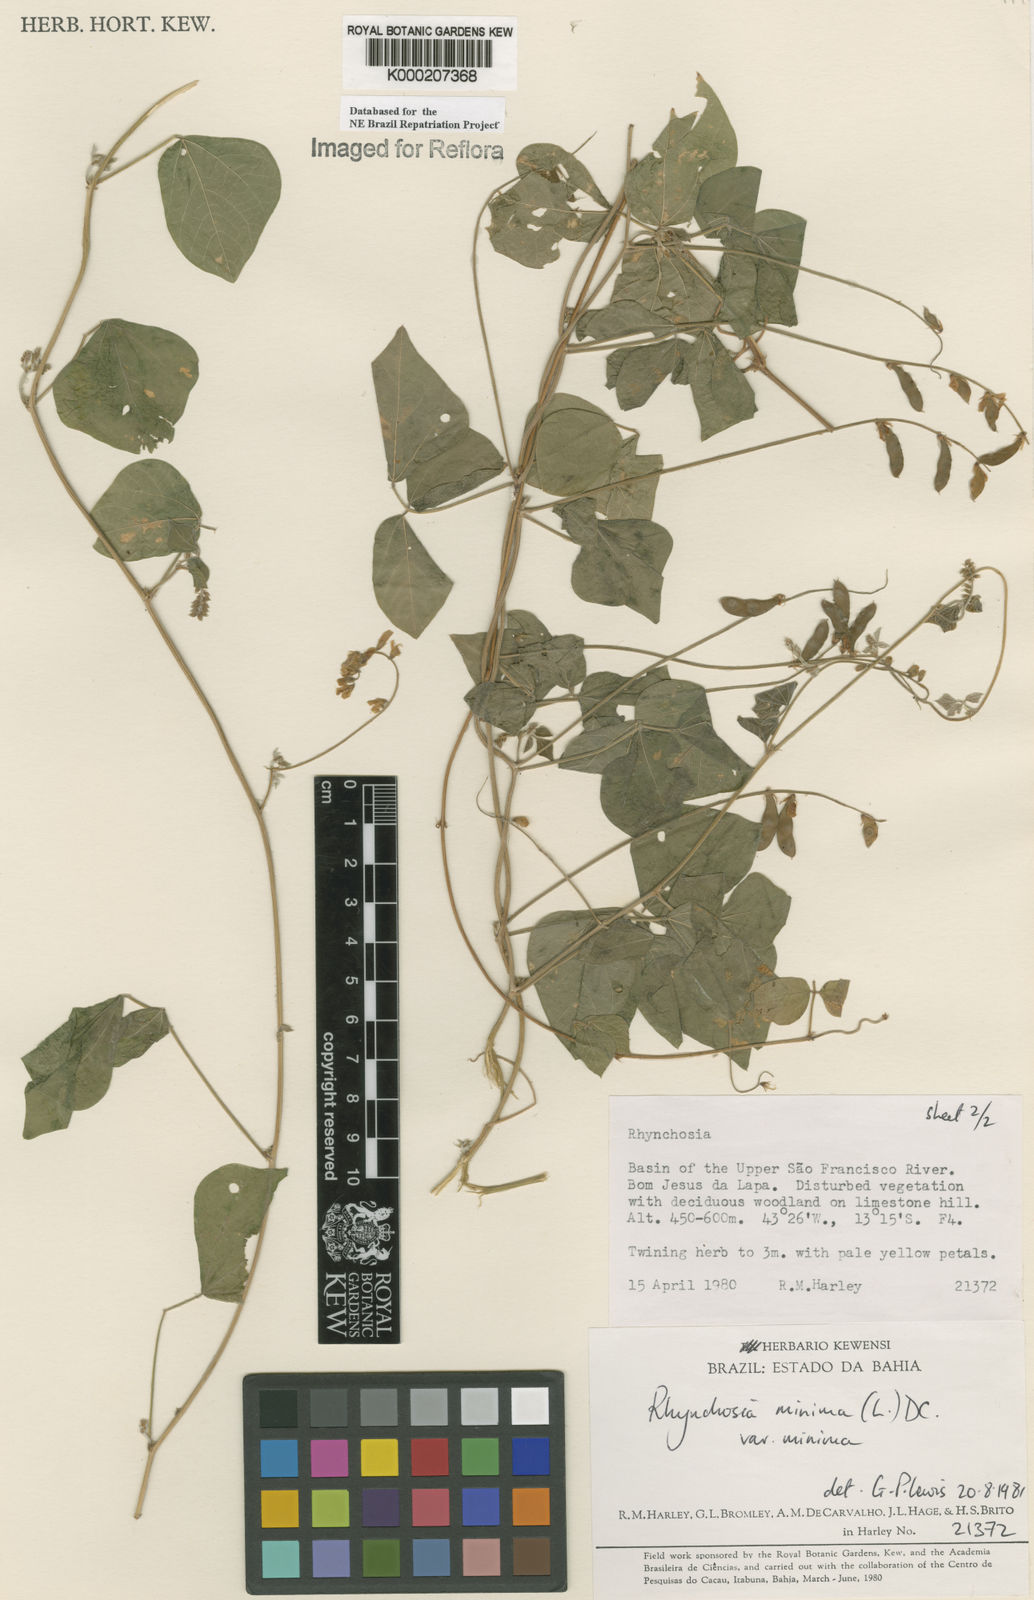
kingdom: Plantae
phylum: Tracheophyta
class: Magnoliopsida
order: Fabales
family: Fabaceae
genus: Rhynchosia
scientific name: Rhynchosia minima
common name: Least snoutbean
